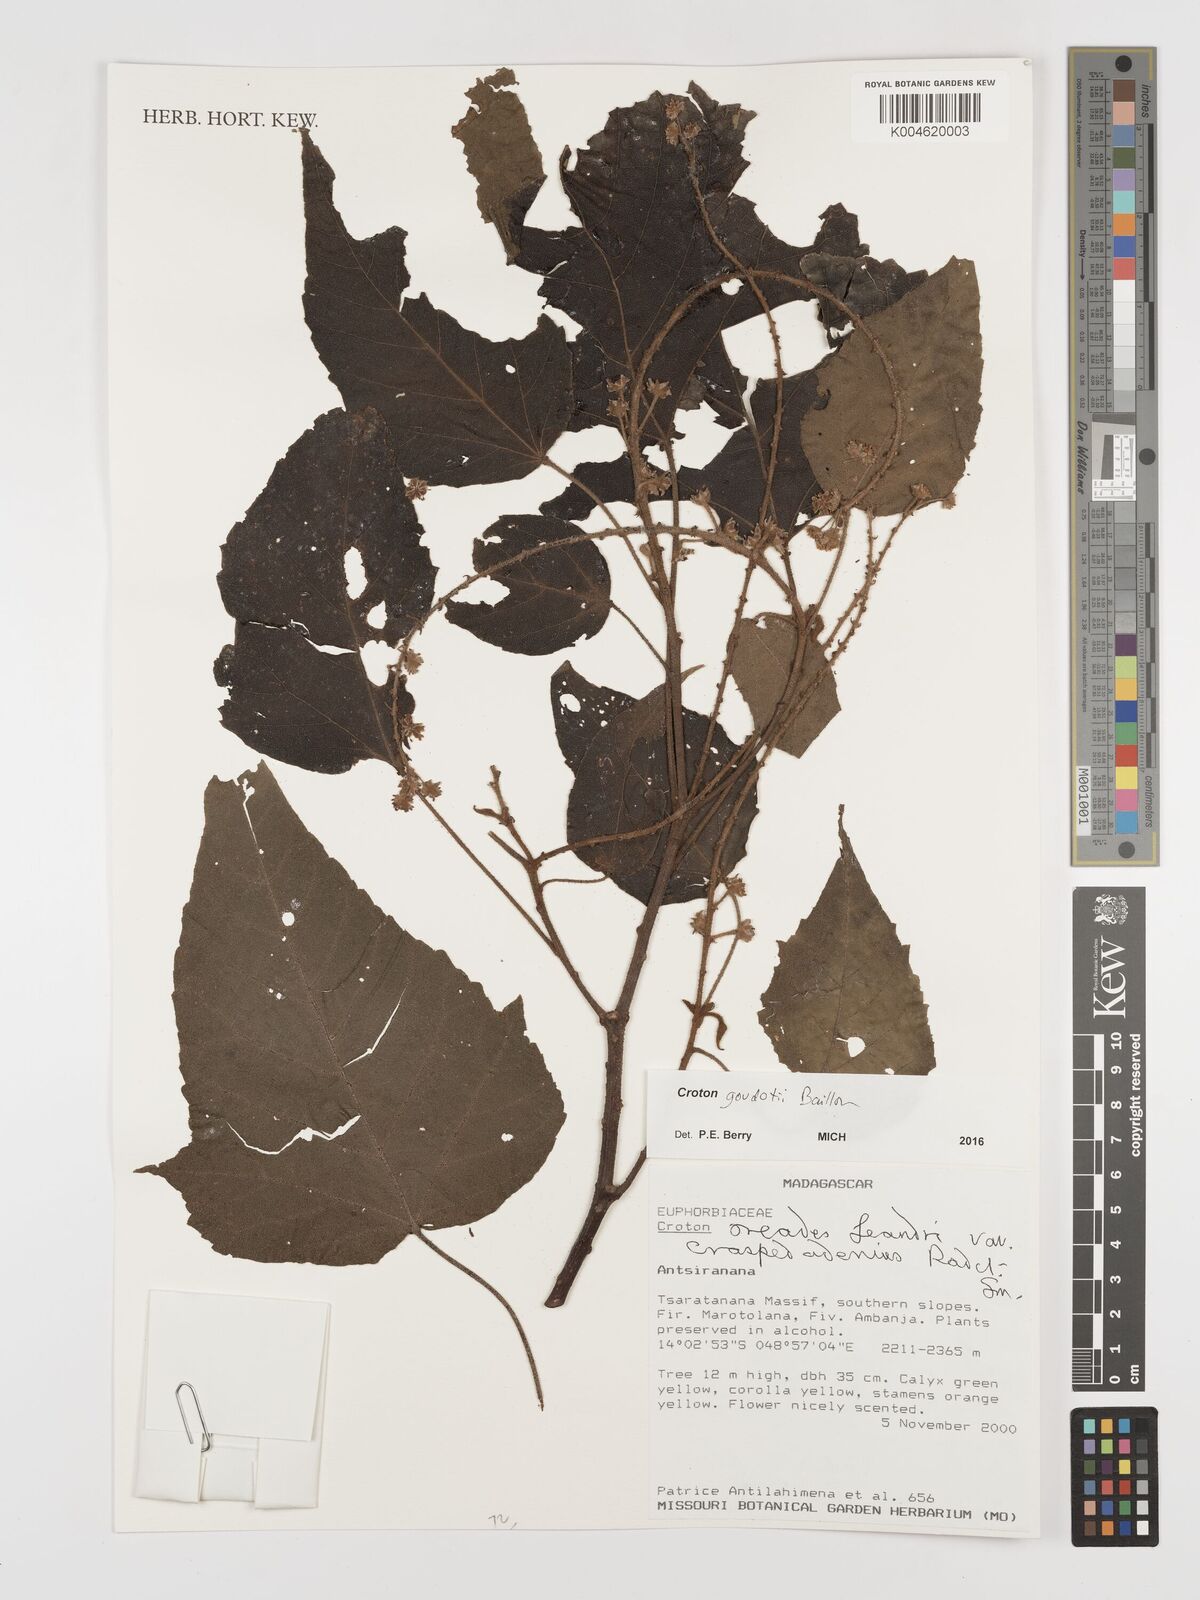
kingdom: Plantae
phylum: Tracheophyta
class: Magnoliopsida
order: Malpighiales
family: Euphorbiaceae
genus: Croton
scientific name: Croton goudotii
